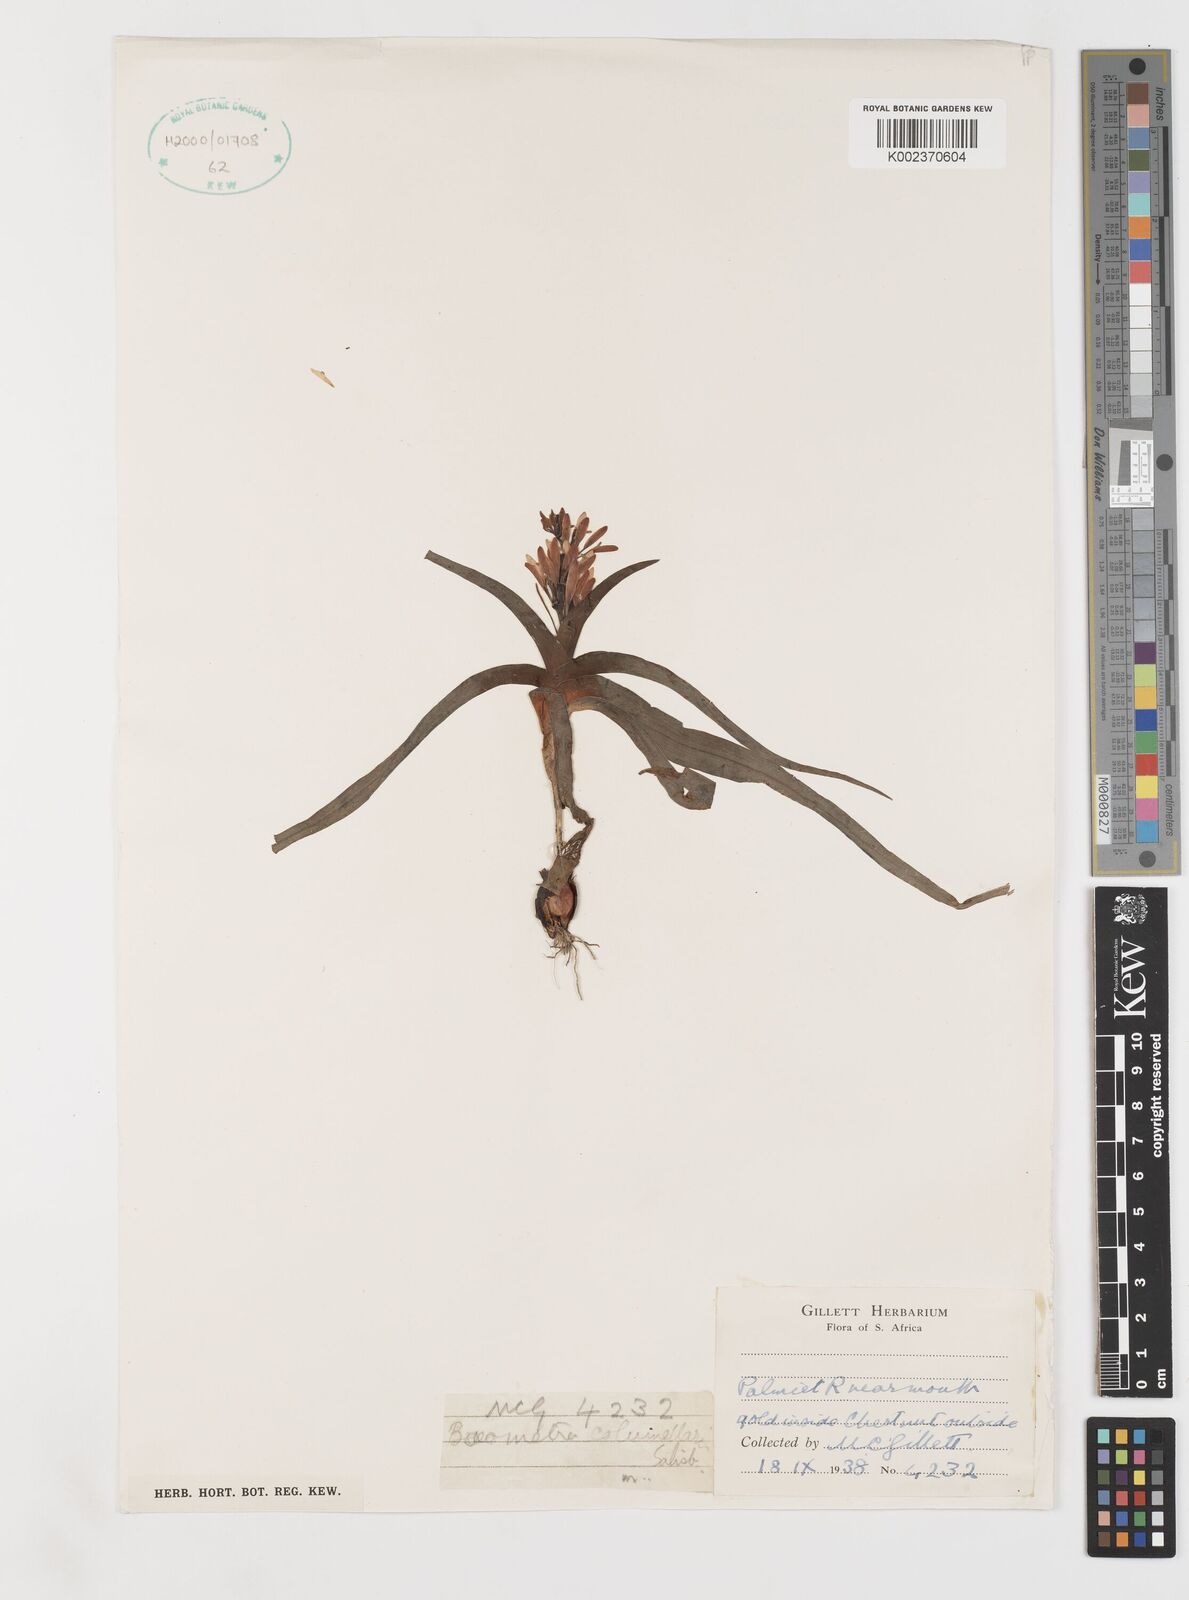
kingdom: Plantae
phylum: Tracheophyta
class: Liliopsida
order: Liliales
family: Colchicaceae
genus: Baeometra
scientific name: Baeometra uniflora
